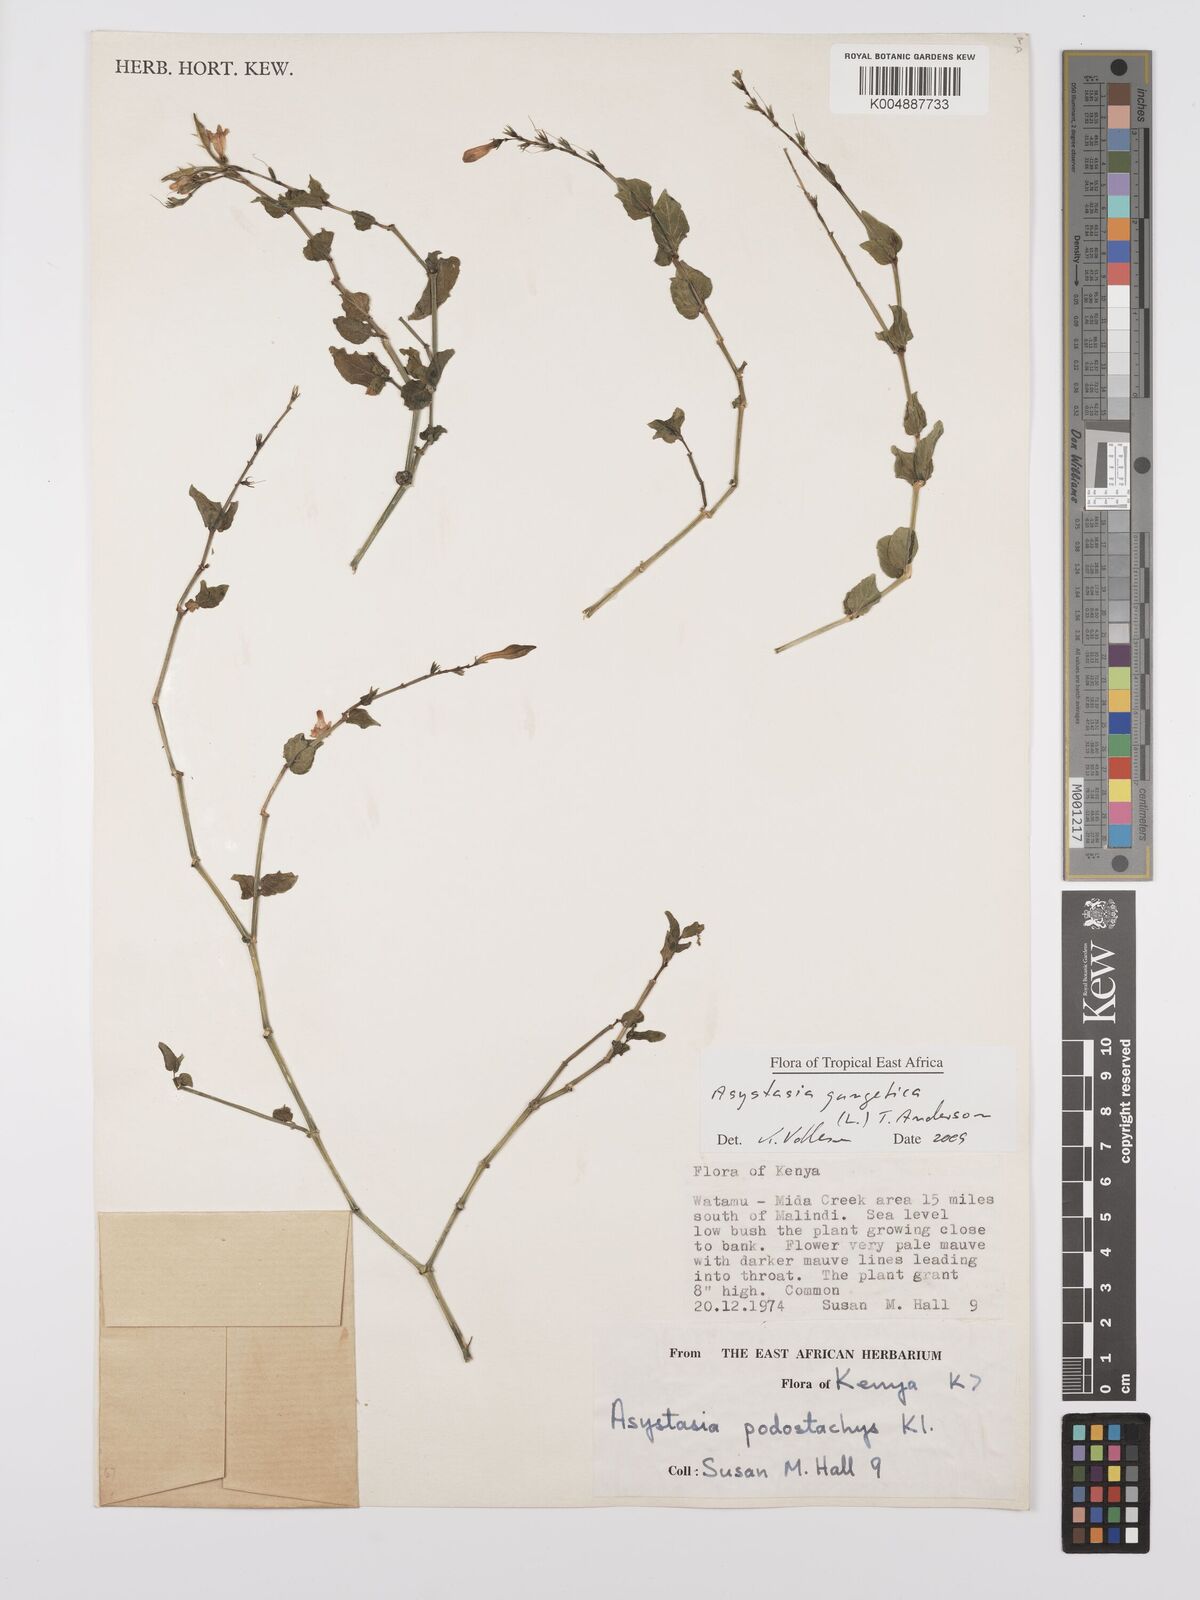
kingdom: Plantae
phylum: Tracheophyta
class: Magnoliopsida
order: Lamiales
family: Acanthaceae
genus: Asystasia
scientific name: Asystasia gangetica
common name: Chinese violet
